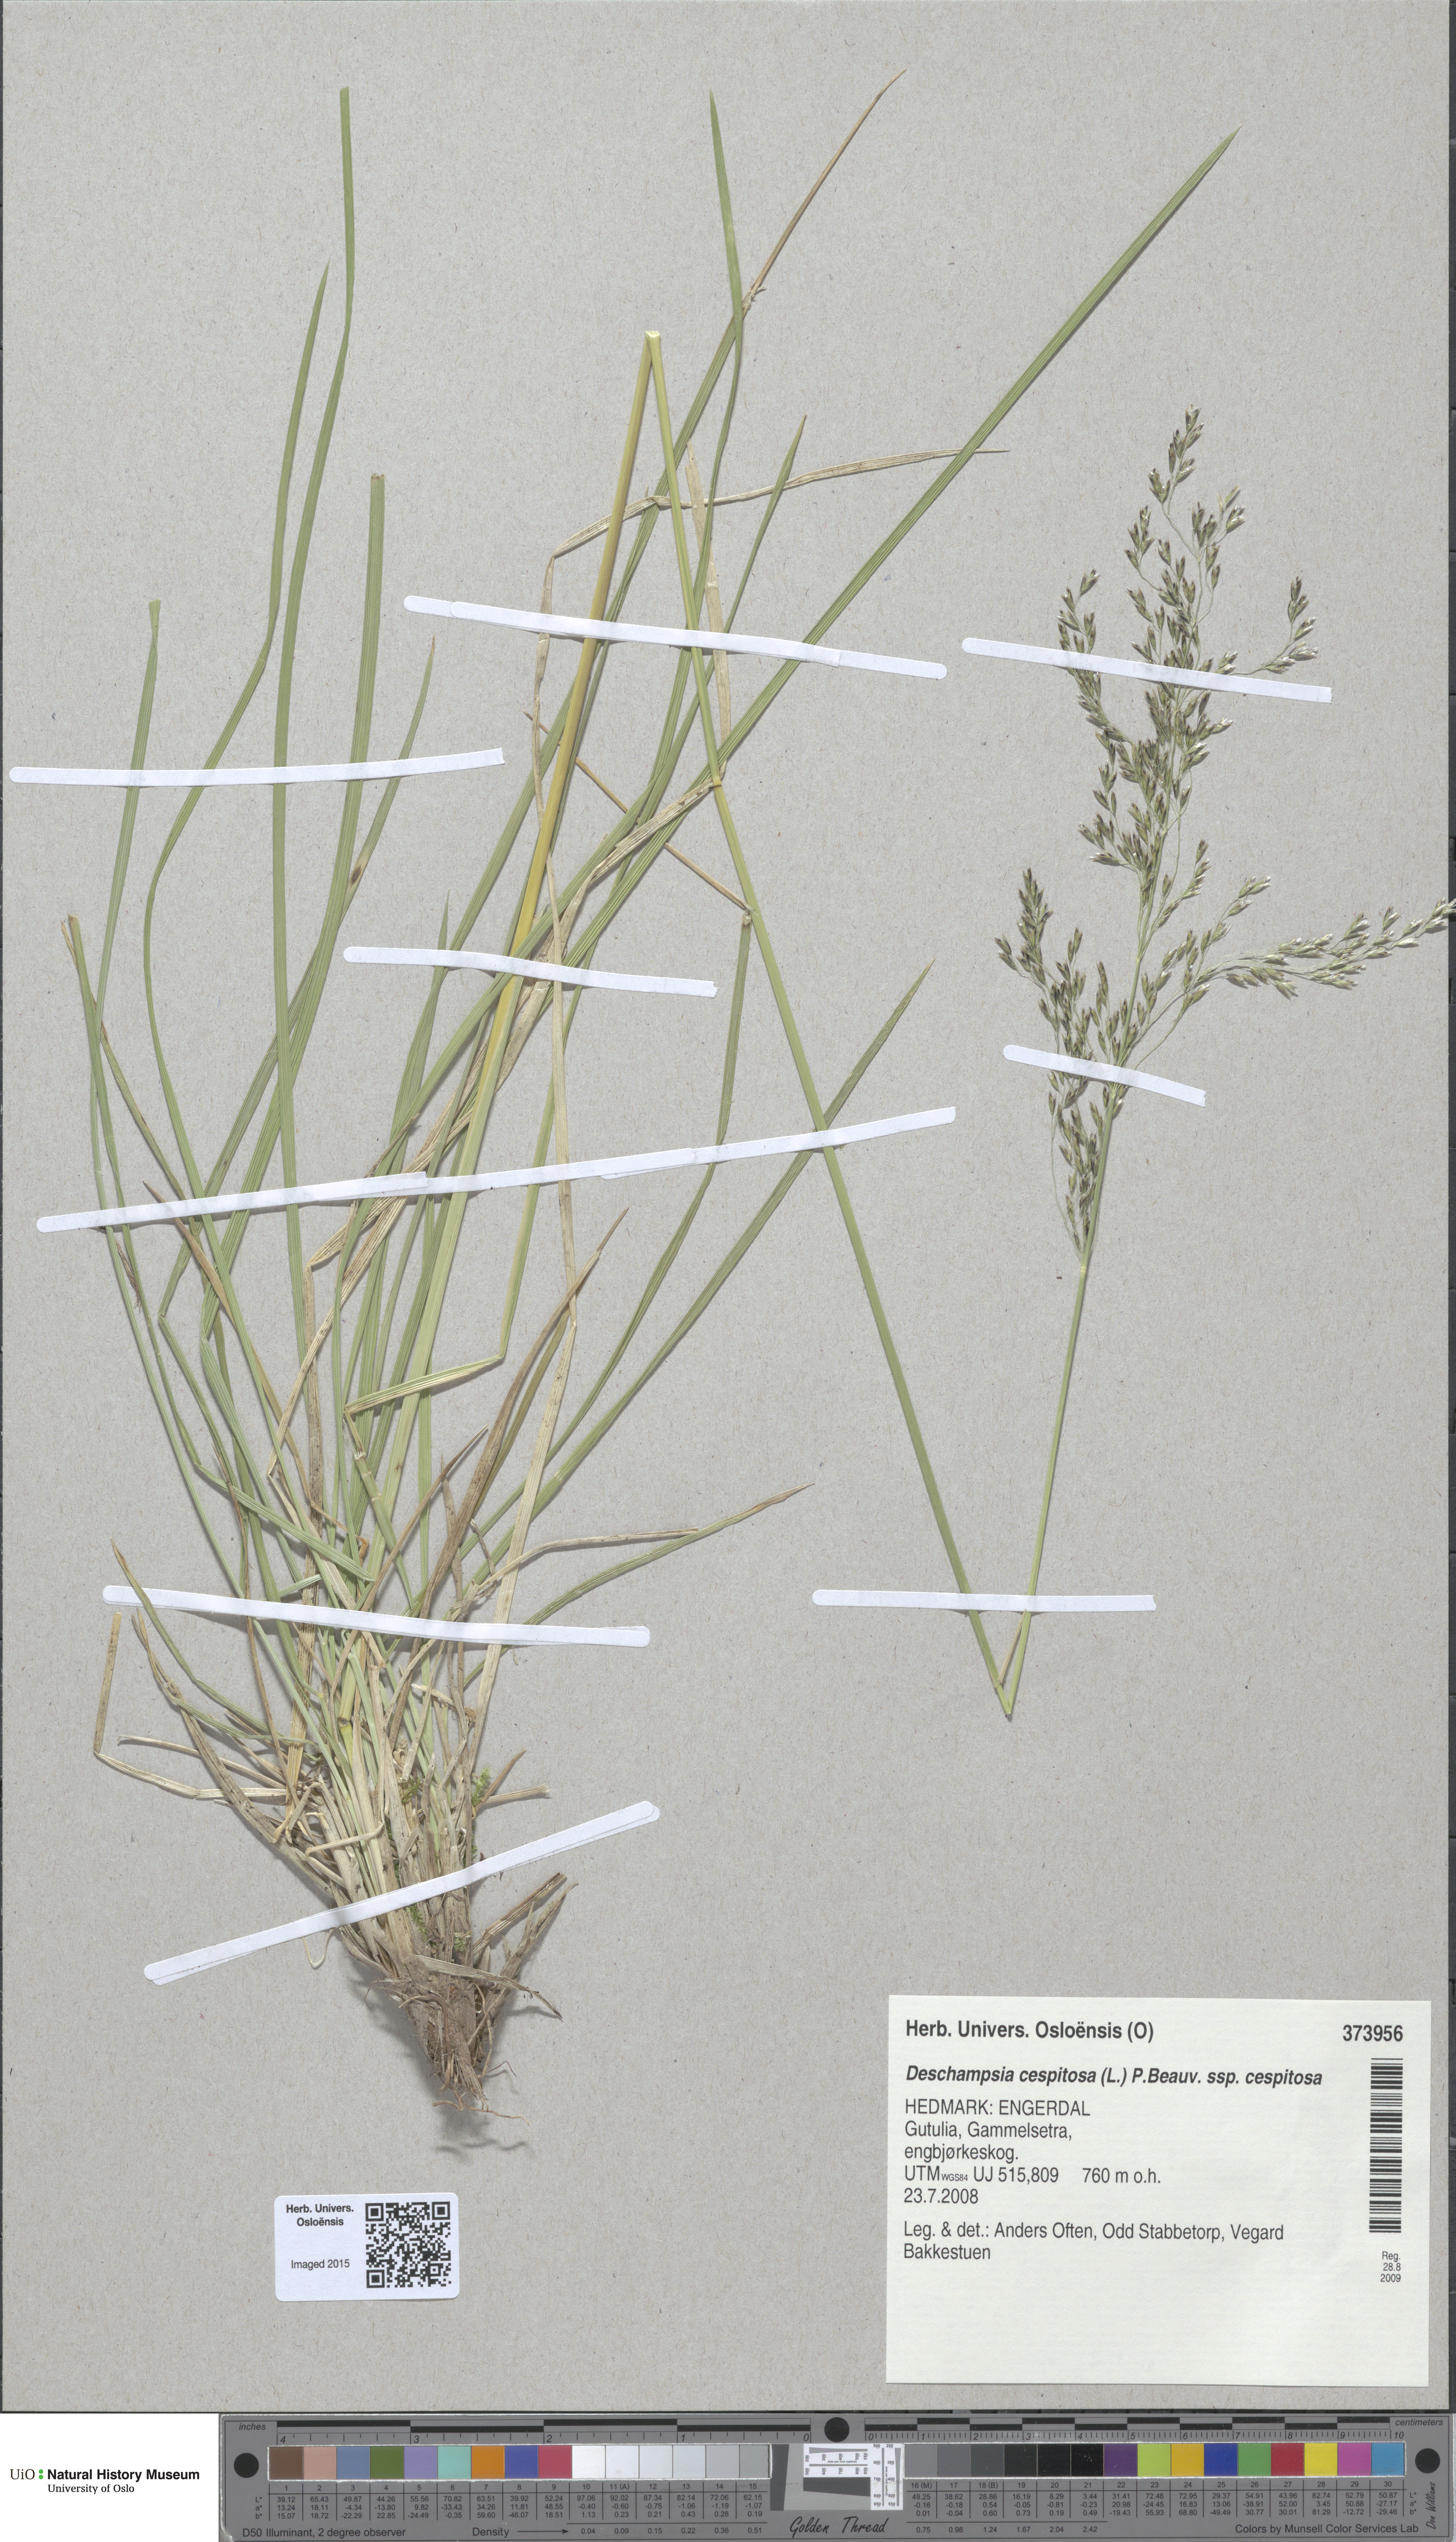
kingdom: Plantae
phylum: Tracheophyta
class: Liliopsida
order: Poales
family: Poaceae
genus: Deschampsia
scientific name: Deschampsia cespitosa
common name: Tufted hair-grass
